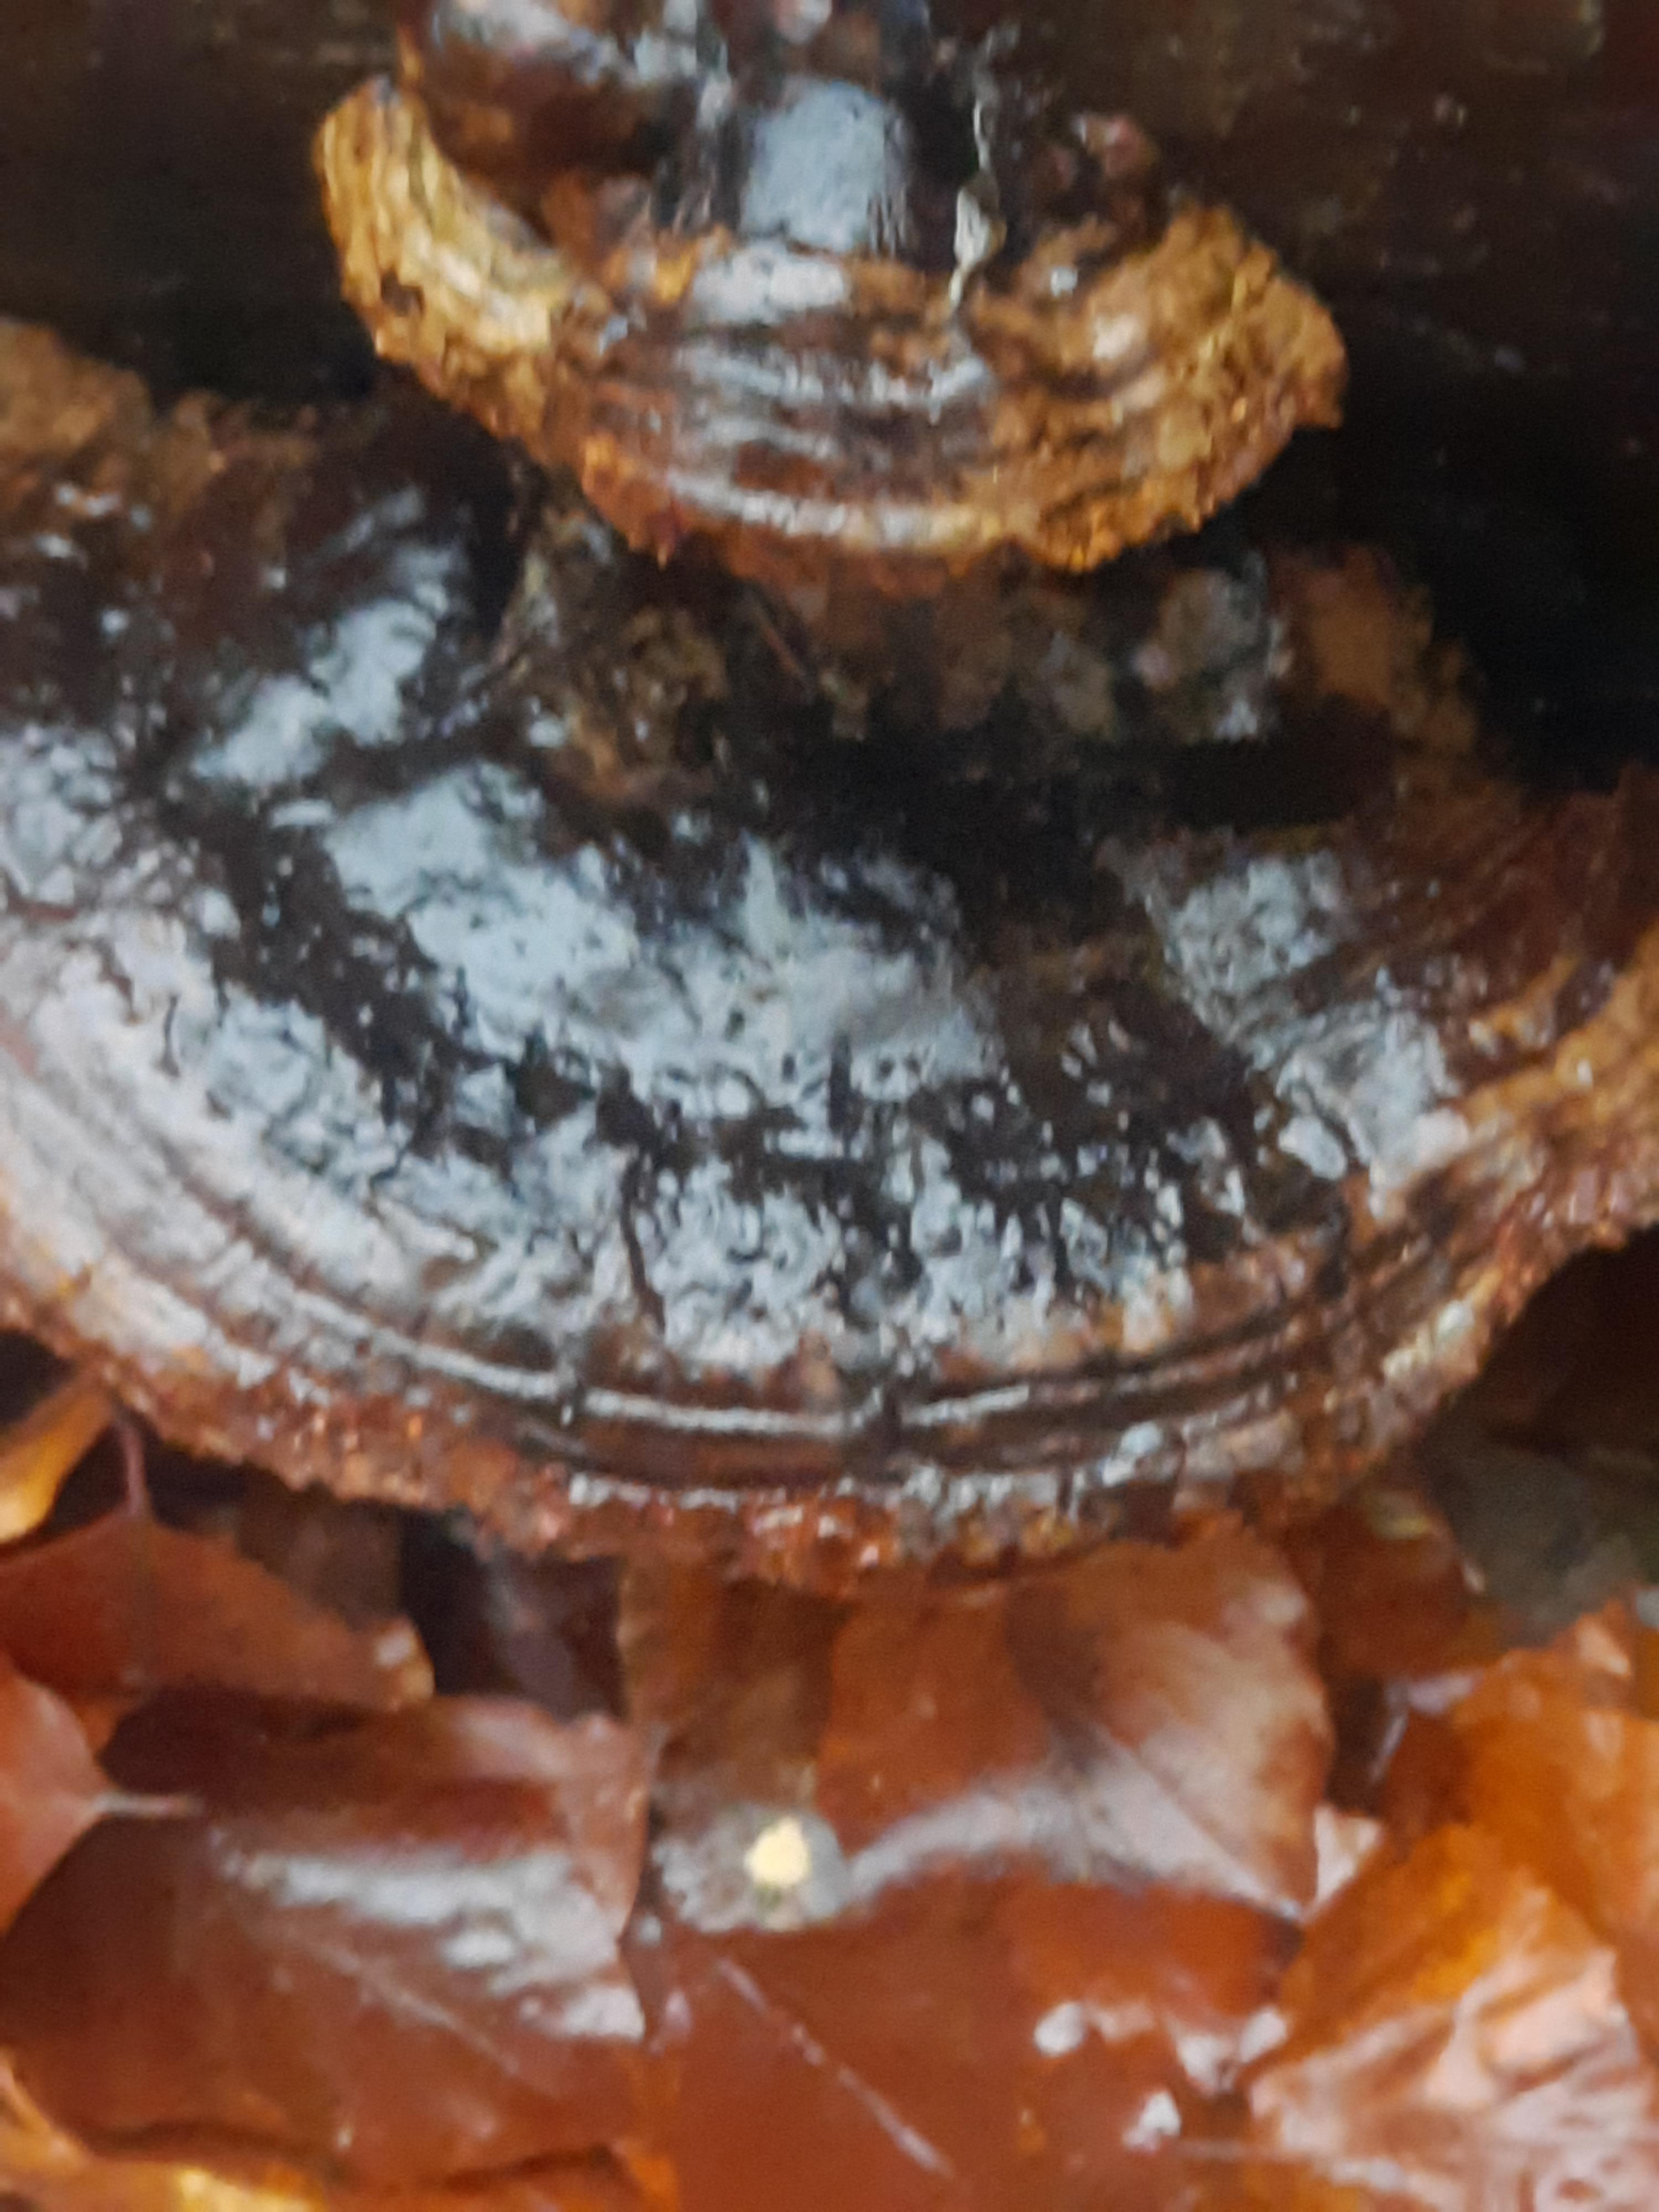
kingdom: Fungi
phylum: Basidiomycota
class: Agaricomycetes
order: Polyporales
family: Polyporaceae
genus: Ganoderma
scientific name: Ganoderma applanatum
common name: flad lakporesvamp
